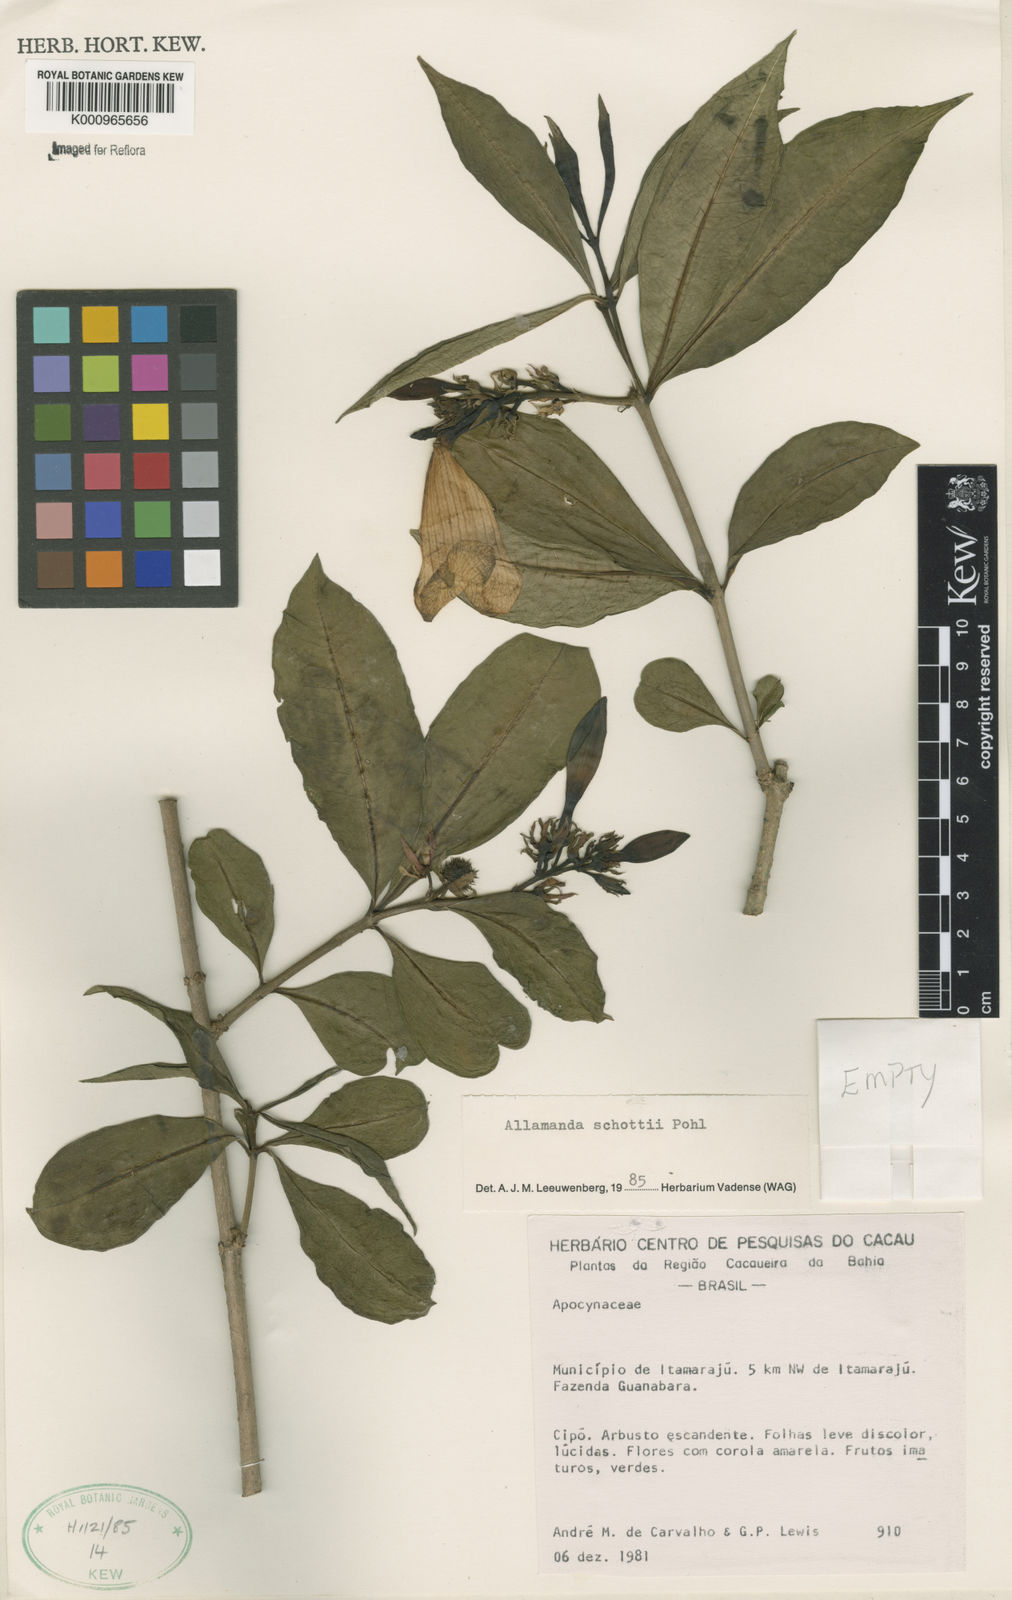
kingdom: Plantae
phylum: Tracheophyta
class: Magnoliopsida
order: Gentianales
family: Apocynaceae
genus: Allamanda
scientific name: Allamanda schottii
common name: Bush allamanda
